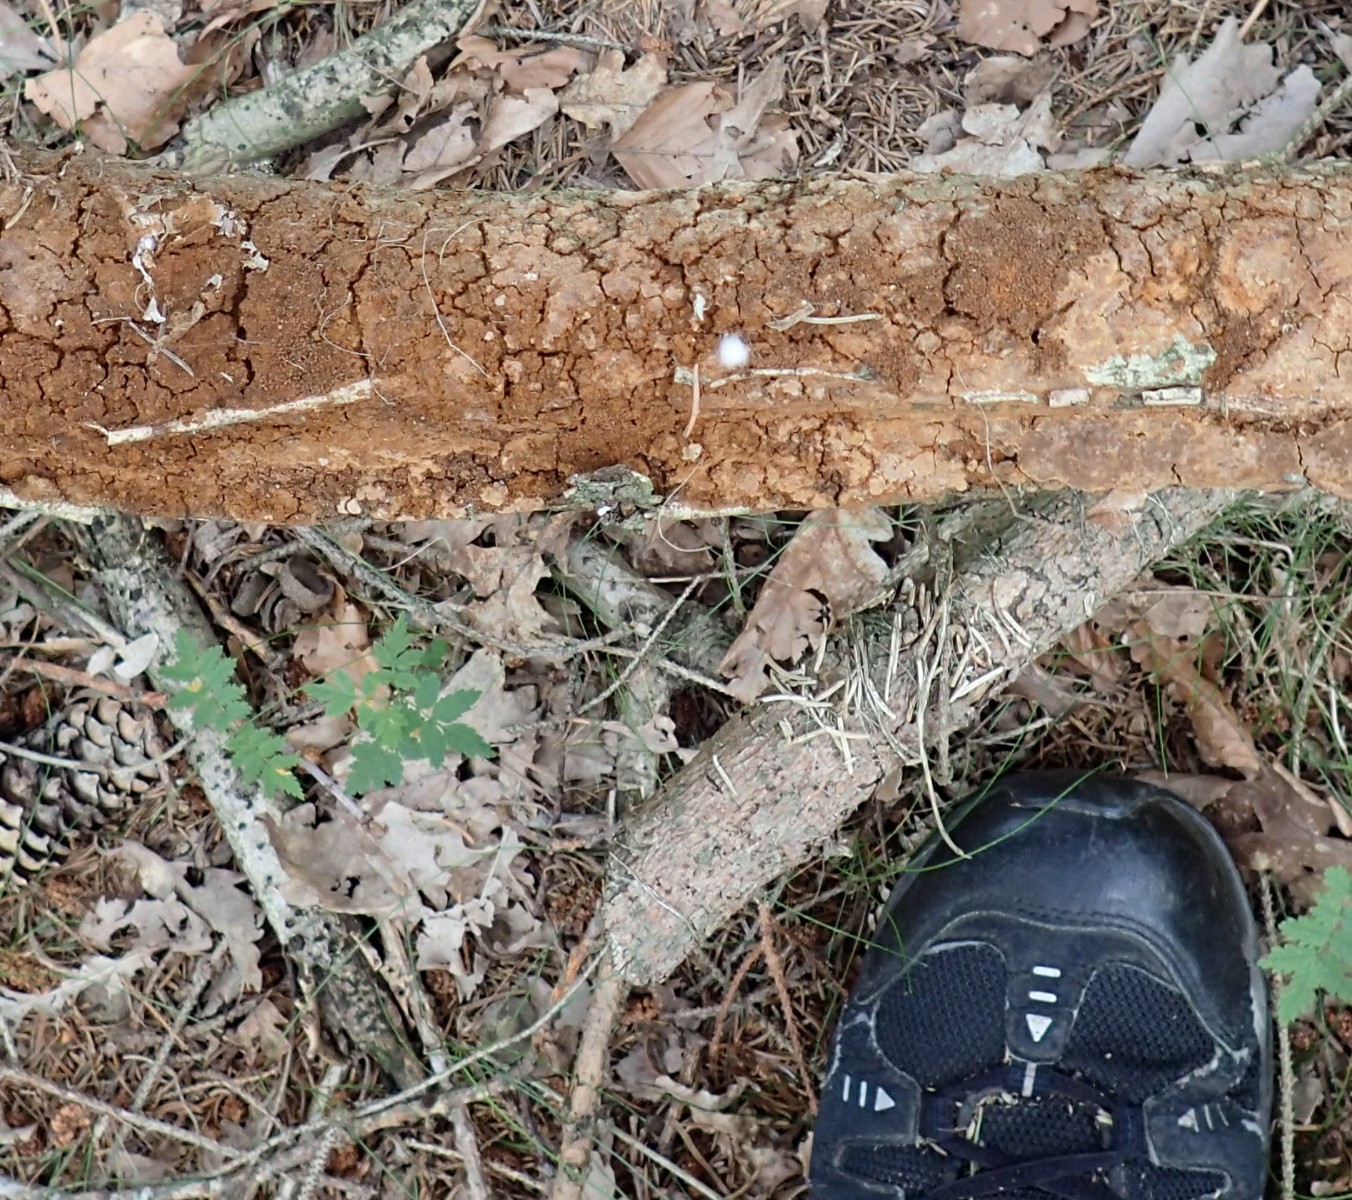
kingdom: Fungi
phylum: Basidiomycota
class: Agaricomycetes
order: Hymenochaetales
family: Hymenochaetaceae
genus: Fuscoporia
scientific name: Fuscoporia ferrea
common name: skorpe-ildporesvamp
